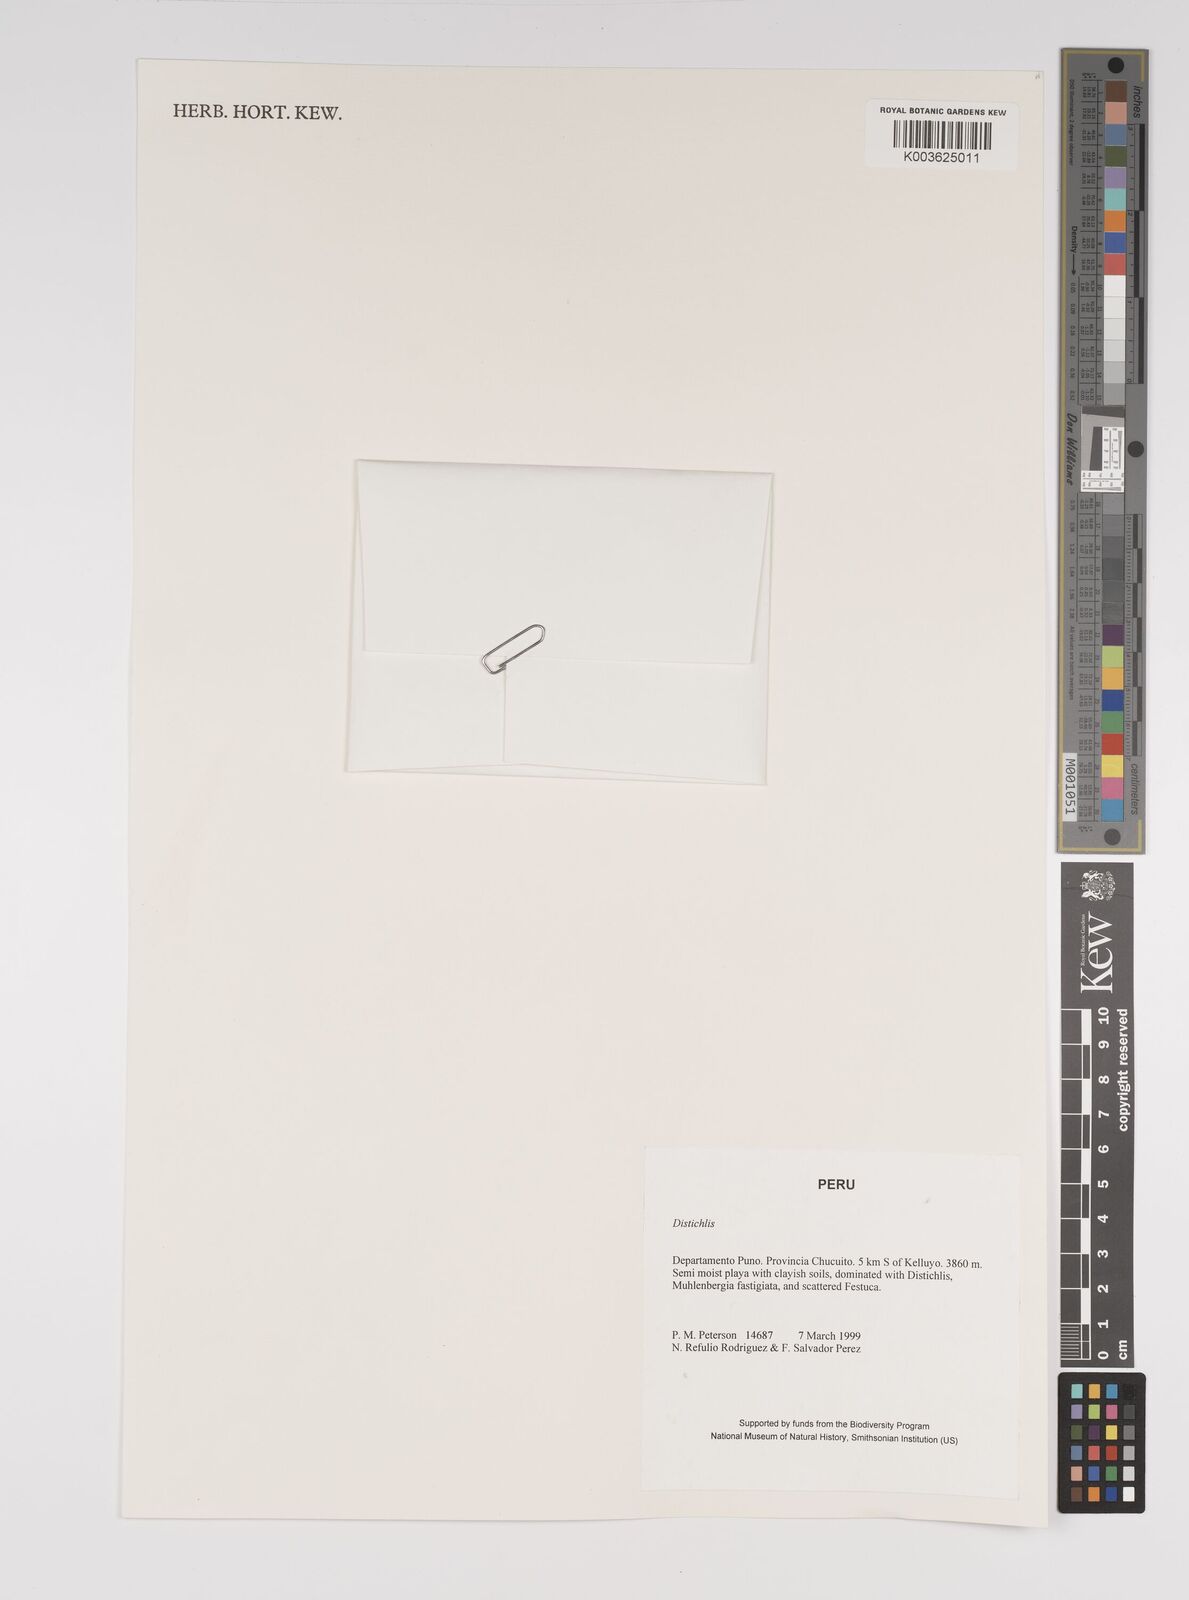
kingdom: Plantae
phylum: Tracheophyta
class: Liliopsida
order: Poales
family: Poaceae
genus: Distichlis
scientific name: Distichlis humilis
